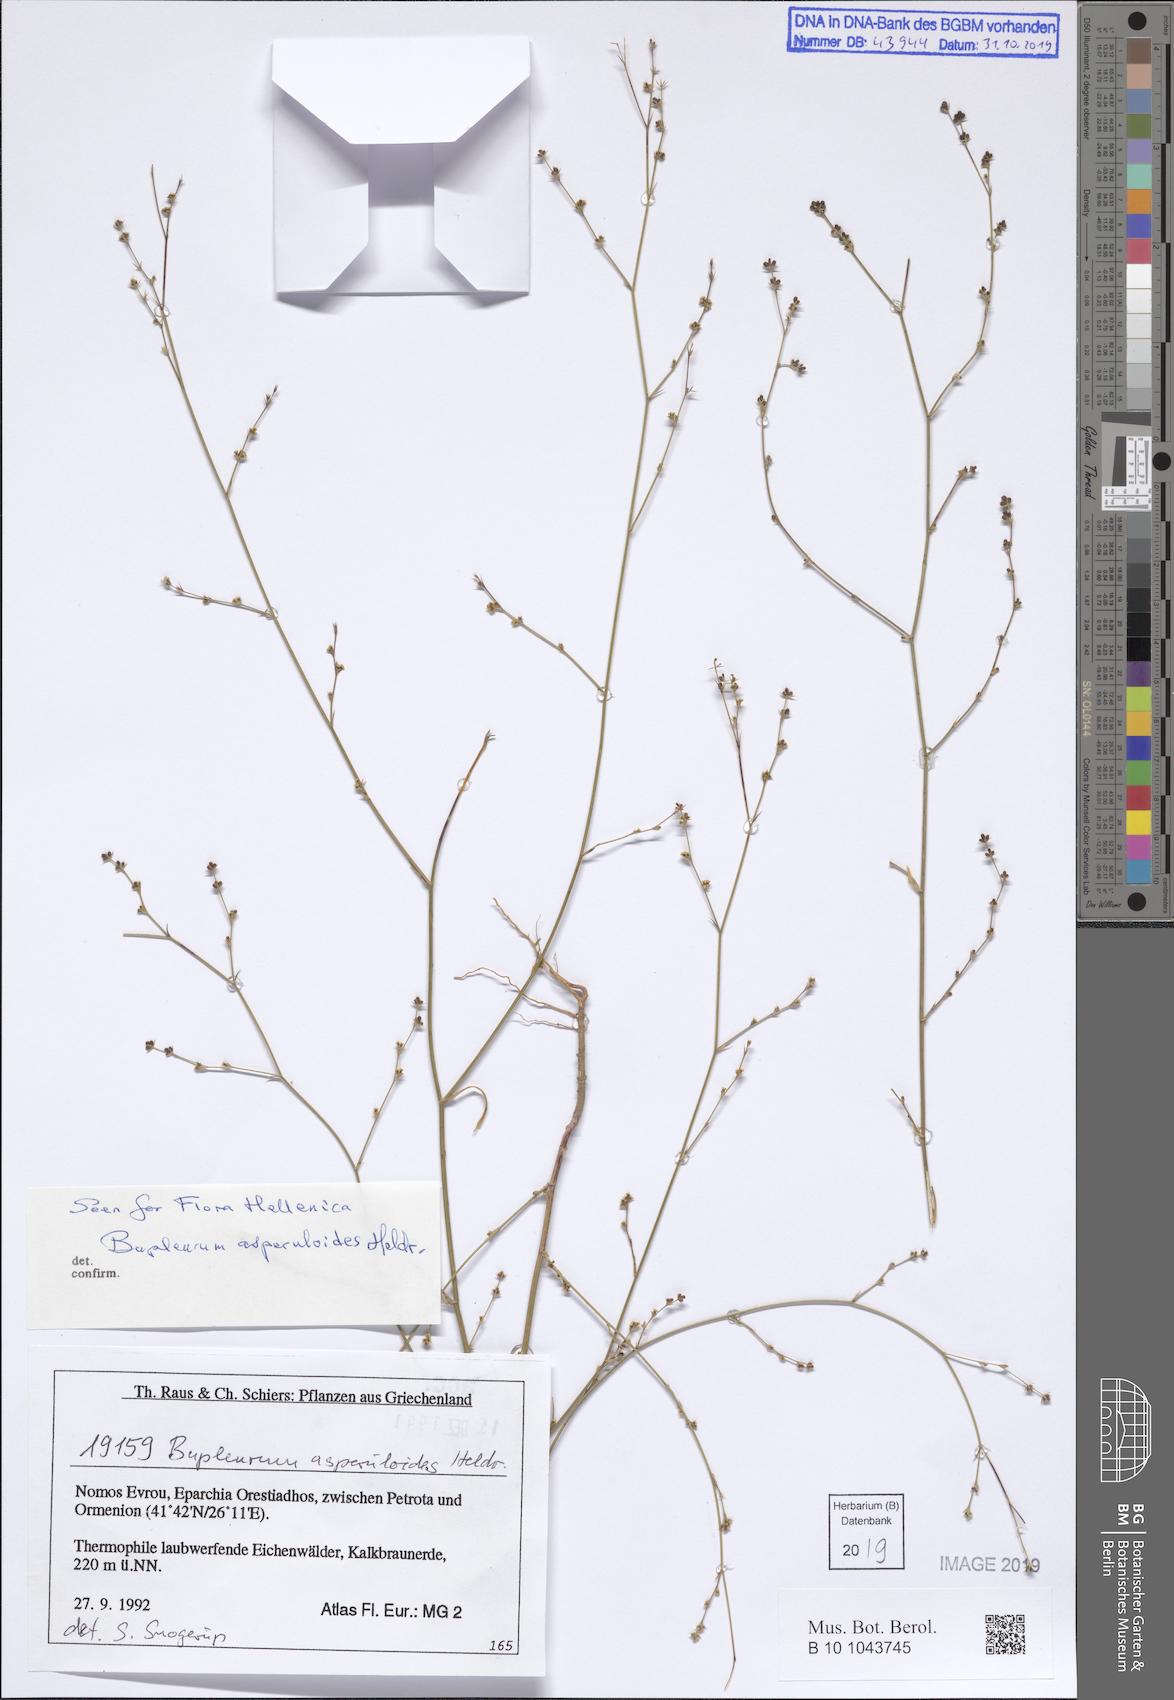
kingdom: Plantae
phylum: Tracheophyta
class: Magnoliopsida
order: Apiales
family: Apiaceae
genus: Bupleurum
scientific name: Bupleurum asperuloides
